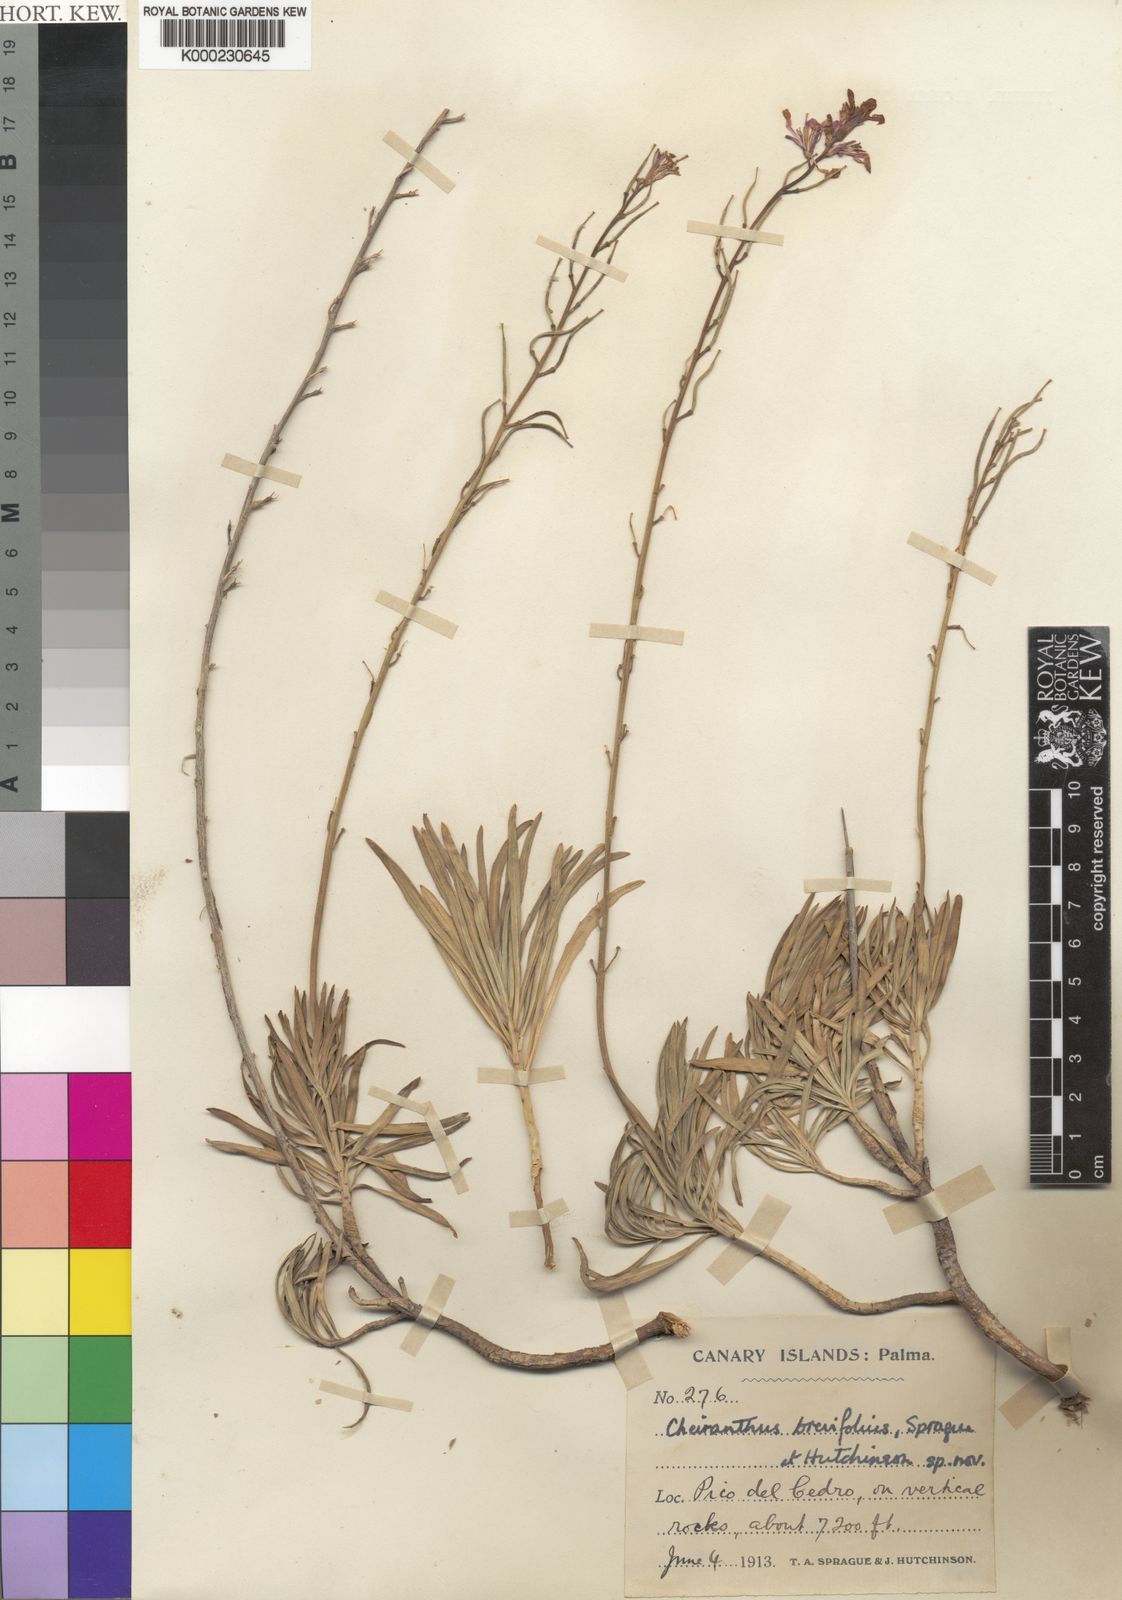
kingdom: Plantae
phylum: Tracheophyta
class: Magnoliopsida
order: Brassicales
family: Brassicaceae
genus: Erysimum
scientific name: Erysimum
